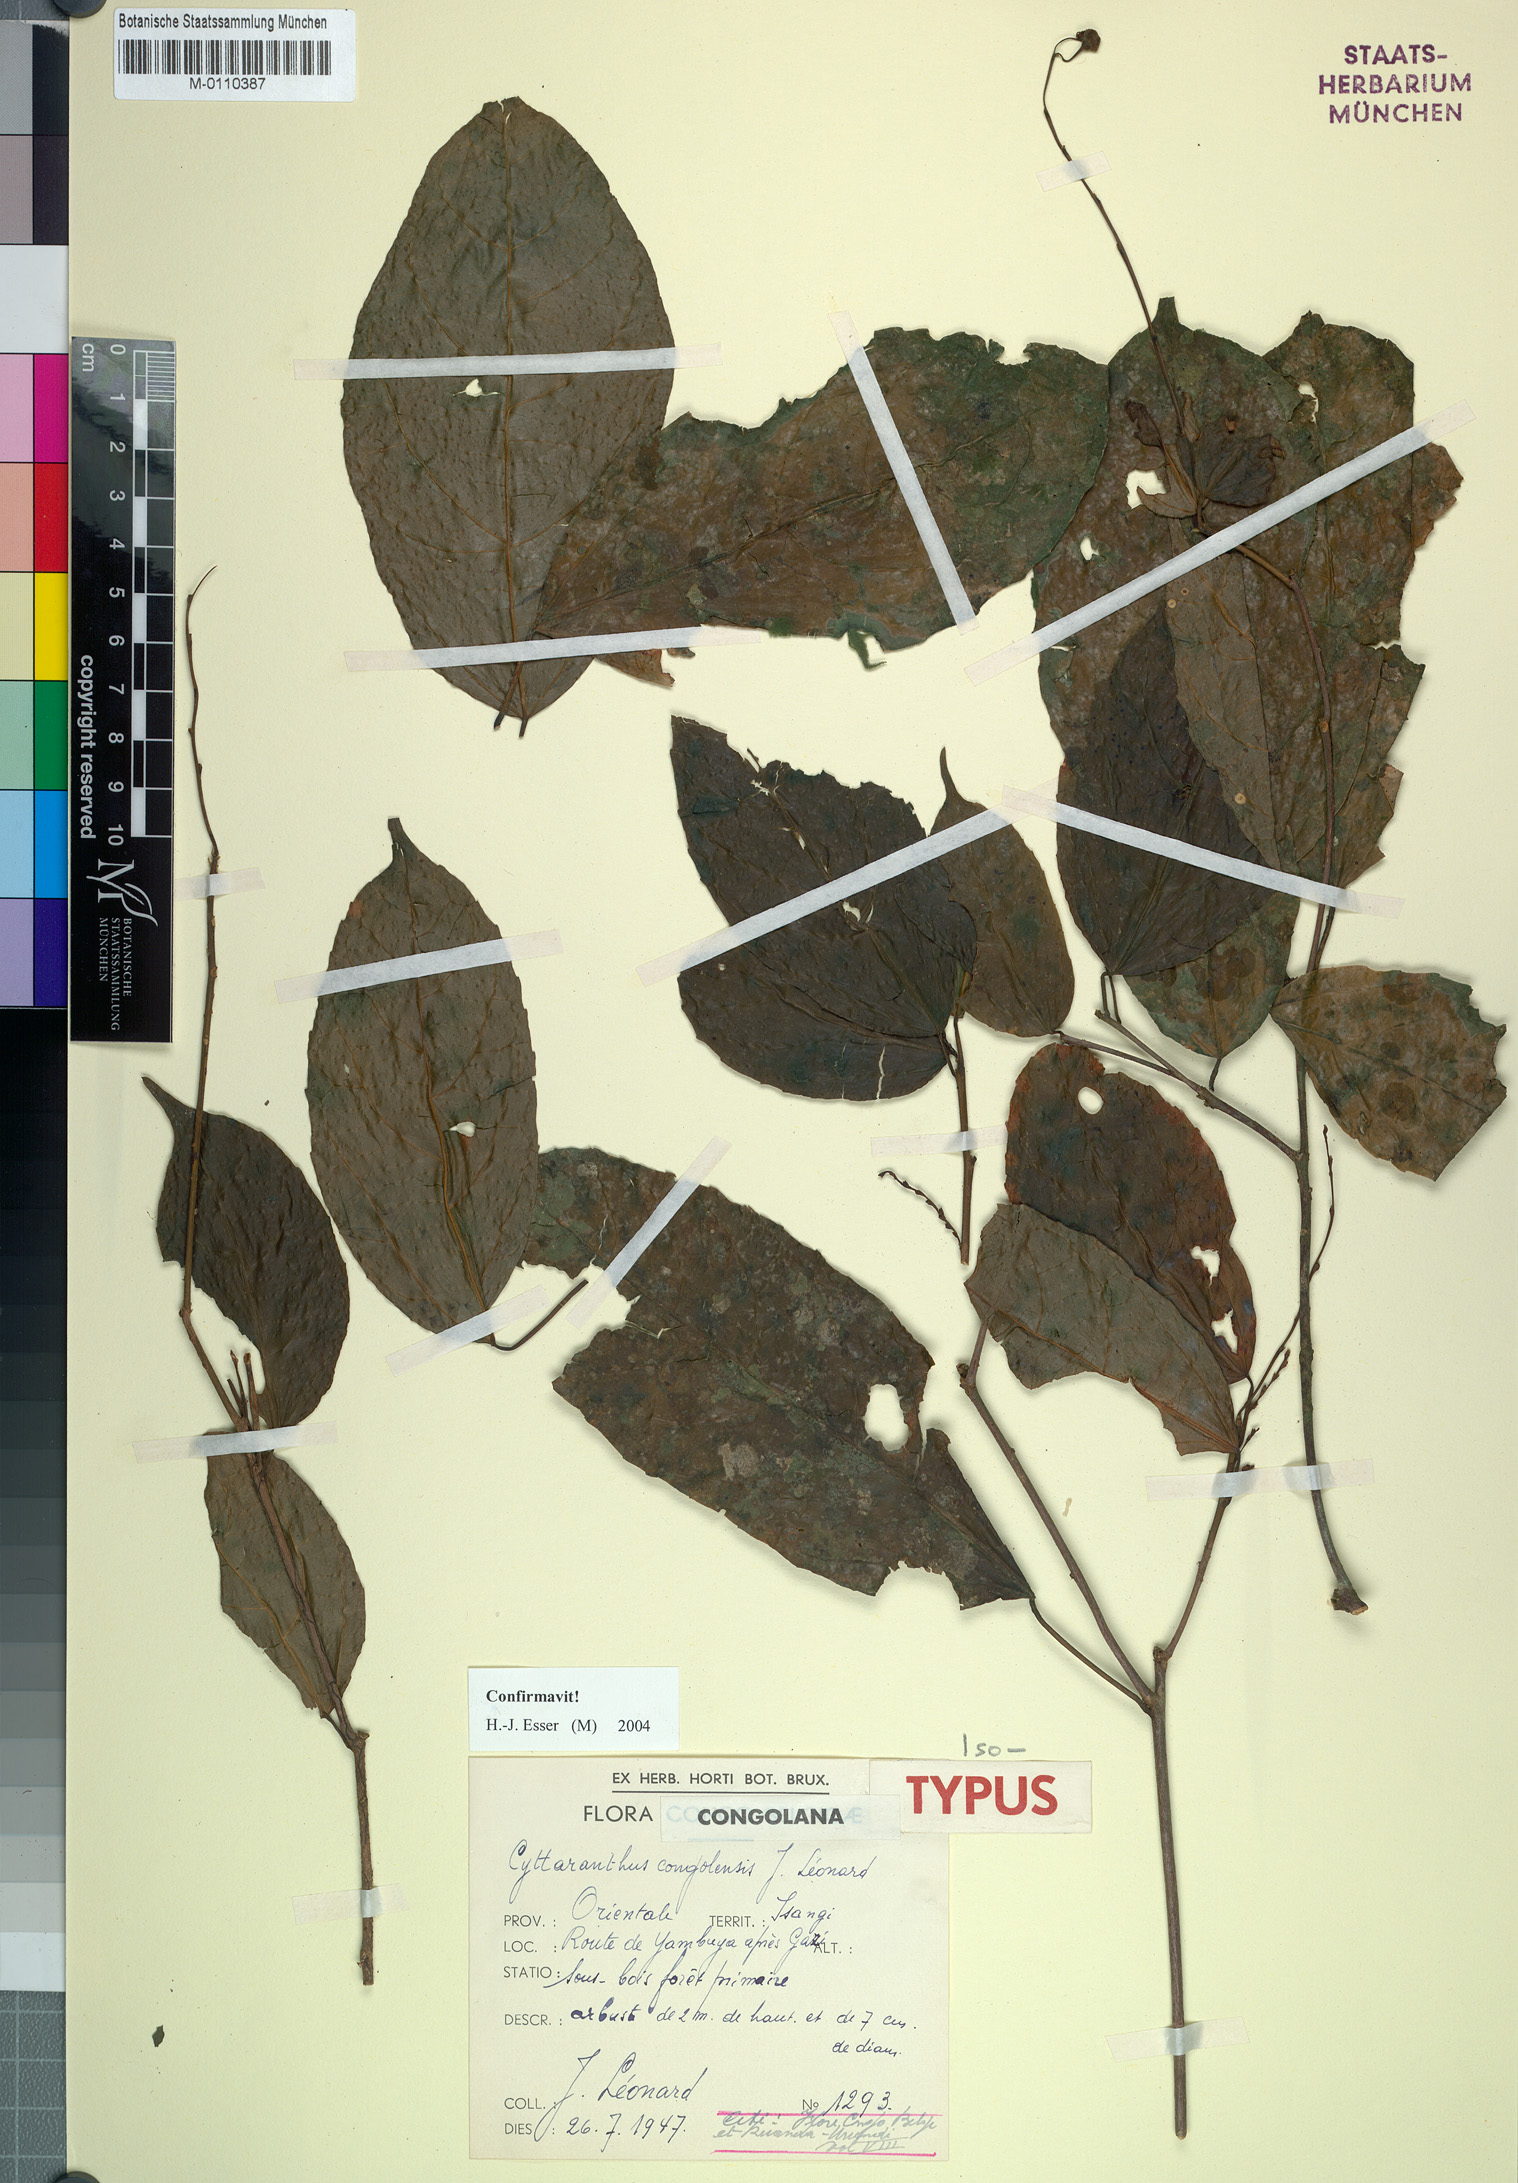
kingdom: Plantae
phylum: Tracheophyta
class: Magnoliopsida
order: Malpighiales
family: Euphorbiaceae
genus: Cyttaranthus
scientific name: Cyttaranthus congolensis
